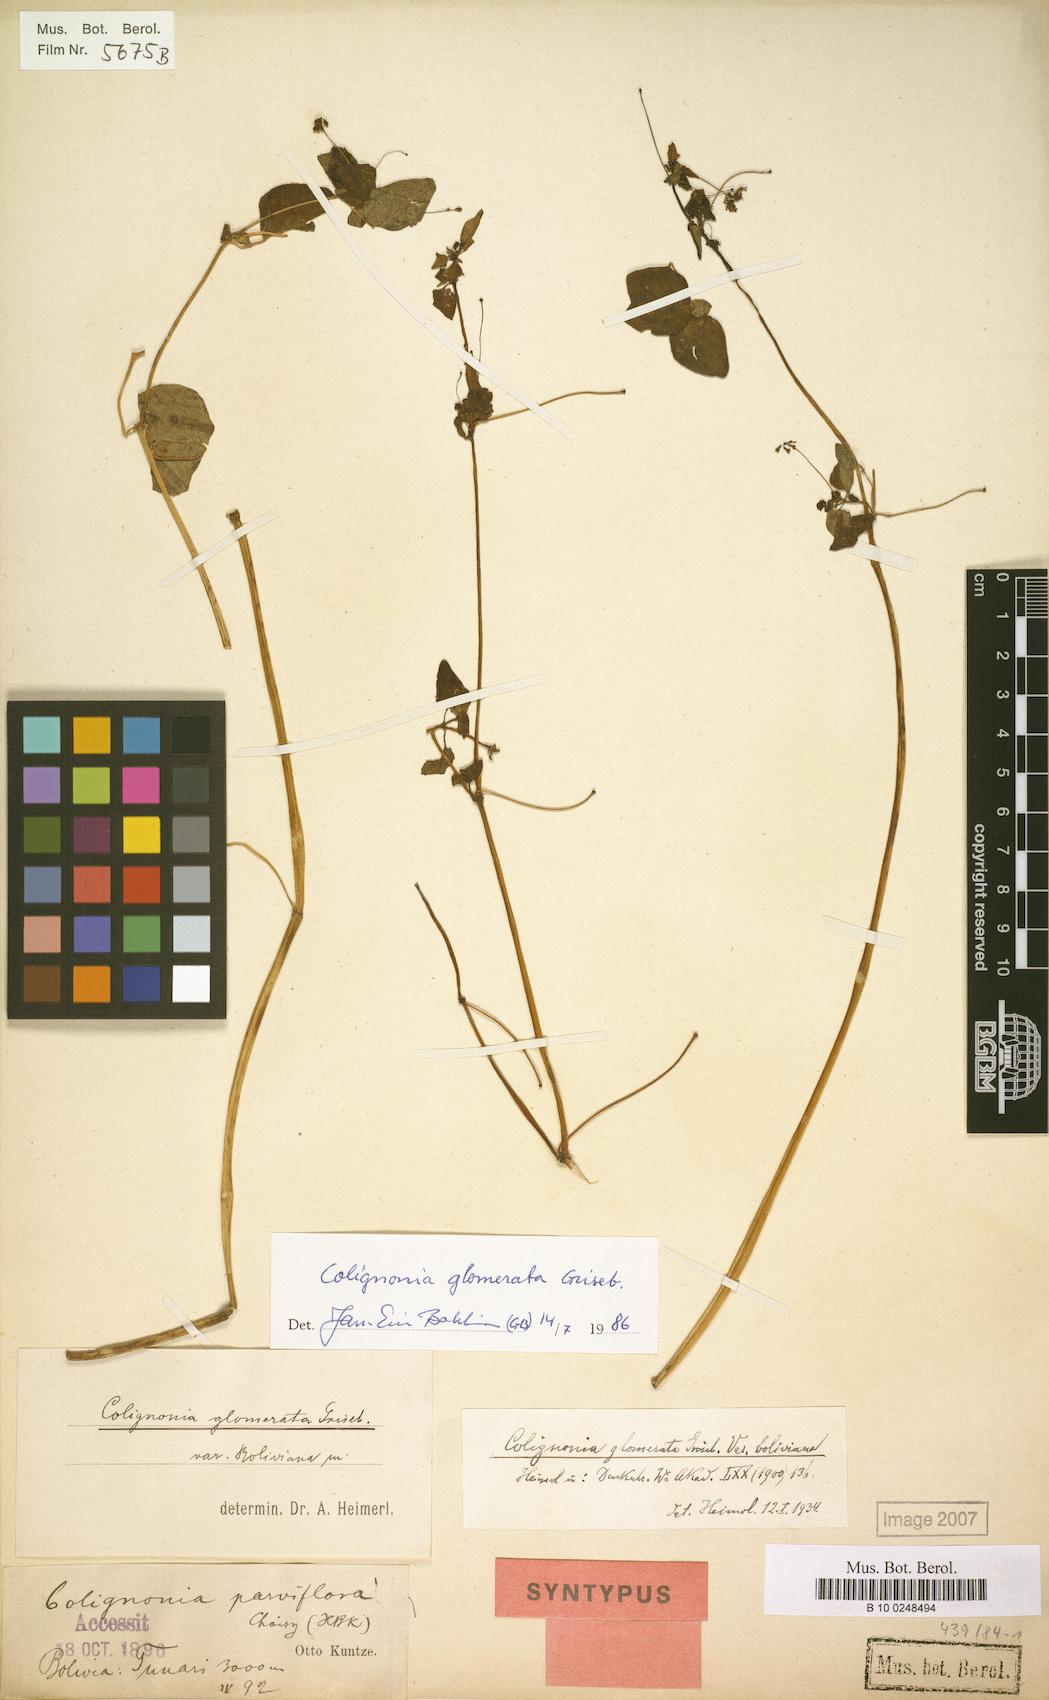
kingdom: Plantae
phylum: Tracheophyta
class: Magnoliopsida
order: Caryophyllales
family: Nyctaginaceae
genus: Colignonia
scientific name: Colignonia glomerata
